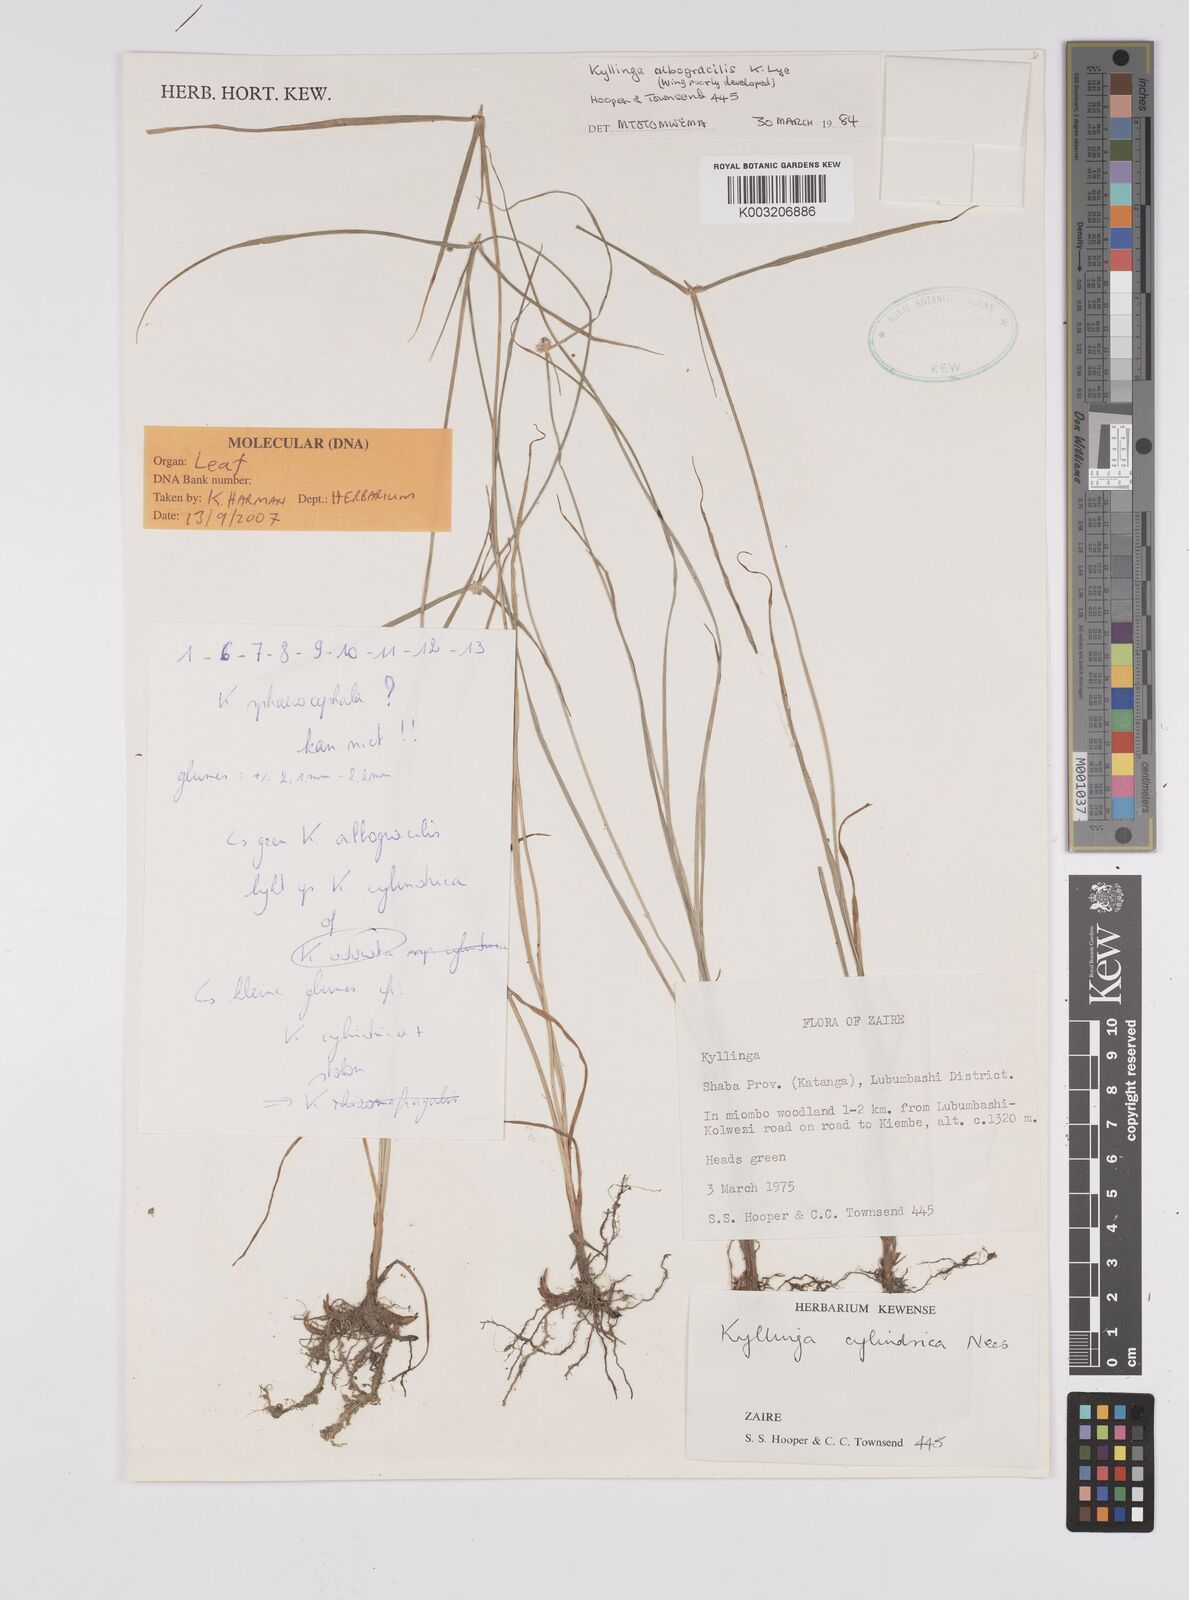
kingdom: Plantae
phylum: Tracheophyta
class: Liliopsida
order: Poales
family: Cyperaceae
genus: Cyperus
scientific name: Cyperus odoratus
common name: Fragrant flatsedge
